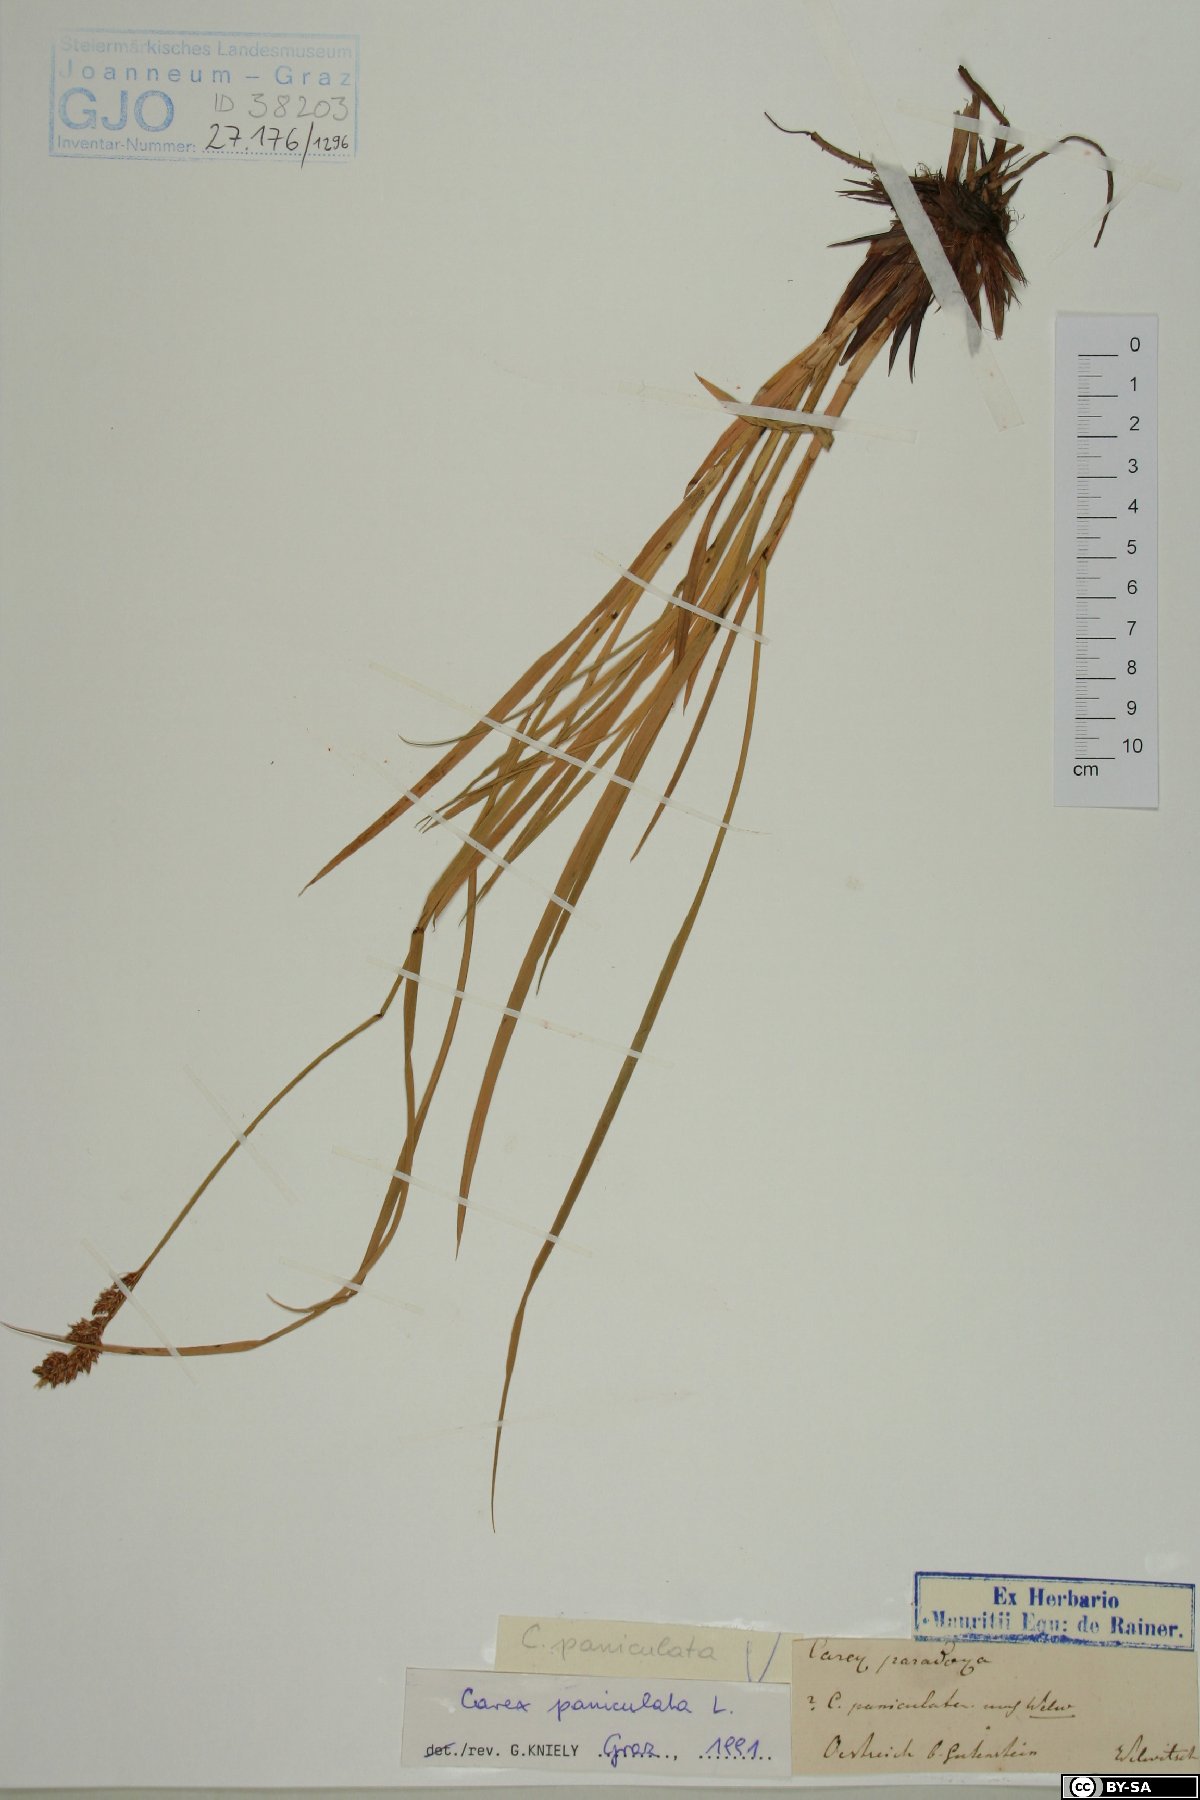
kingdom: Plantae
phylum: Tracheophyta
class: Liliopsida
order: Poales
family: Cyperaceae
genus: Carex
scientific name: Carex paniculata
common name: Greater tussock-sedge
